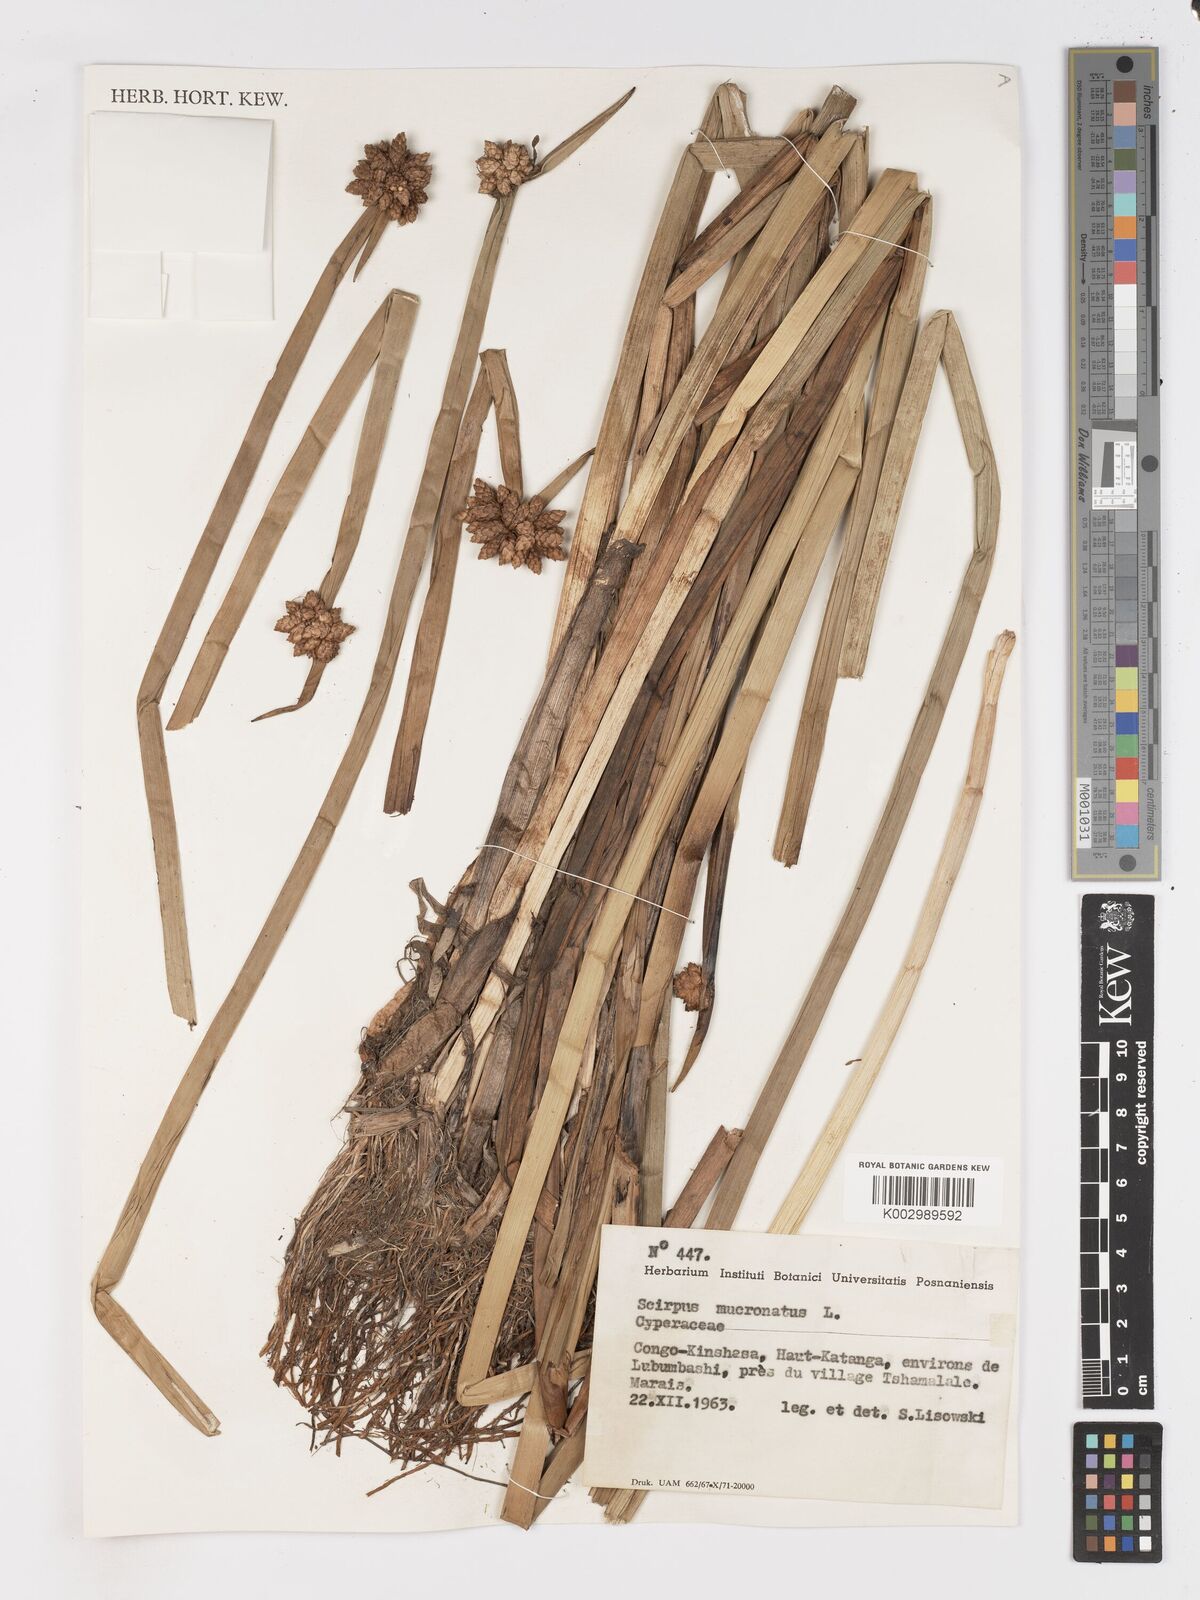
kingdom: Plantae
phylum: Tracheophyta
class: Liliopsida
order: Poales
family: Cyperaceae
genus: Schoenoplectiella
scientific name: Schoenoplectiella mucronata
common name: Bog bulrush
